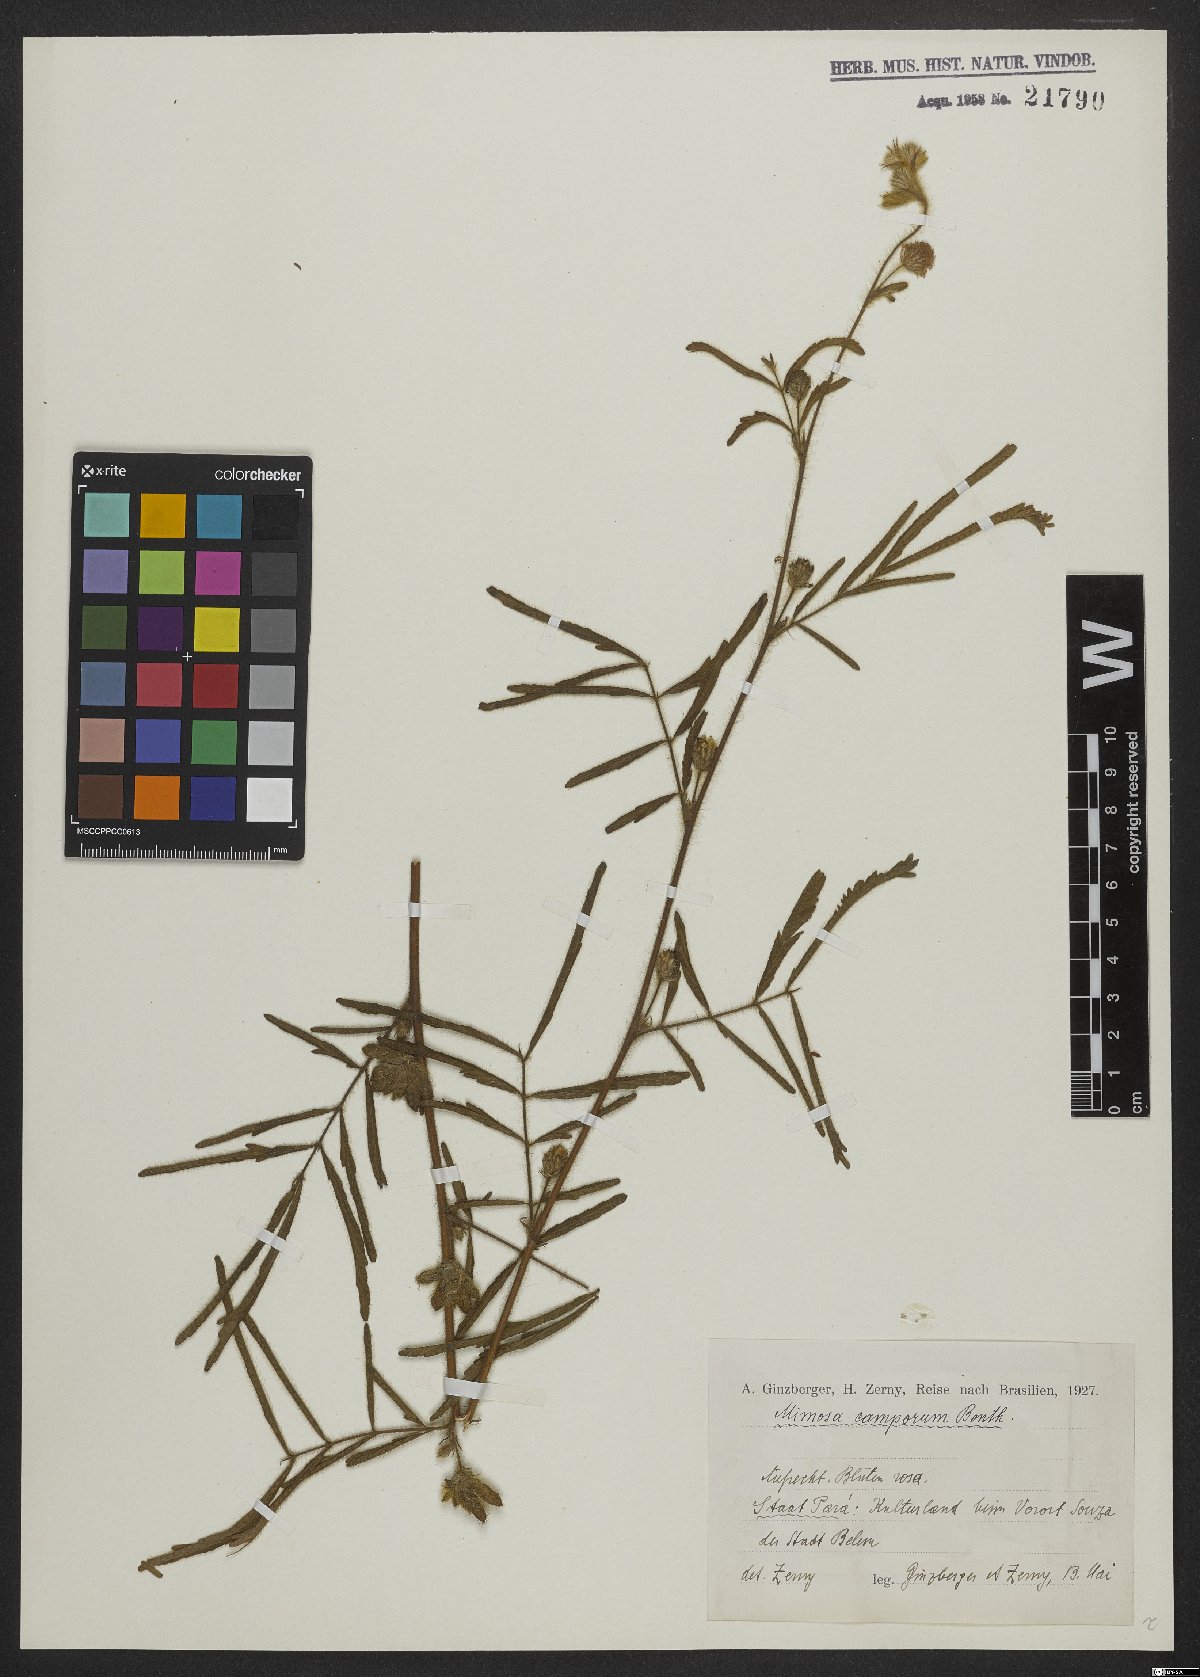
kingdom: Plantae
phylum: Tracheophyta
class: Magnoliopsida
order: Fabales
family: Fabaceae
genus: Mimosa
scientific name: Mimosa camporum
